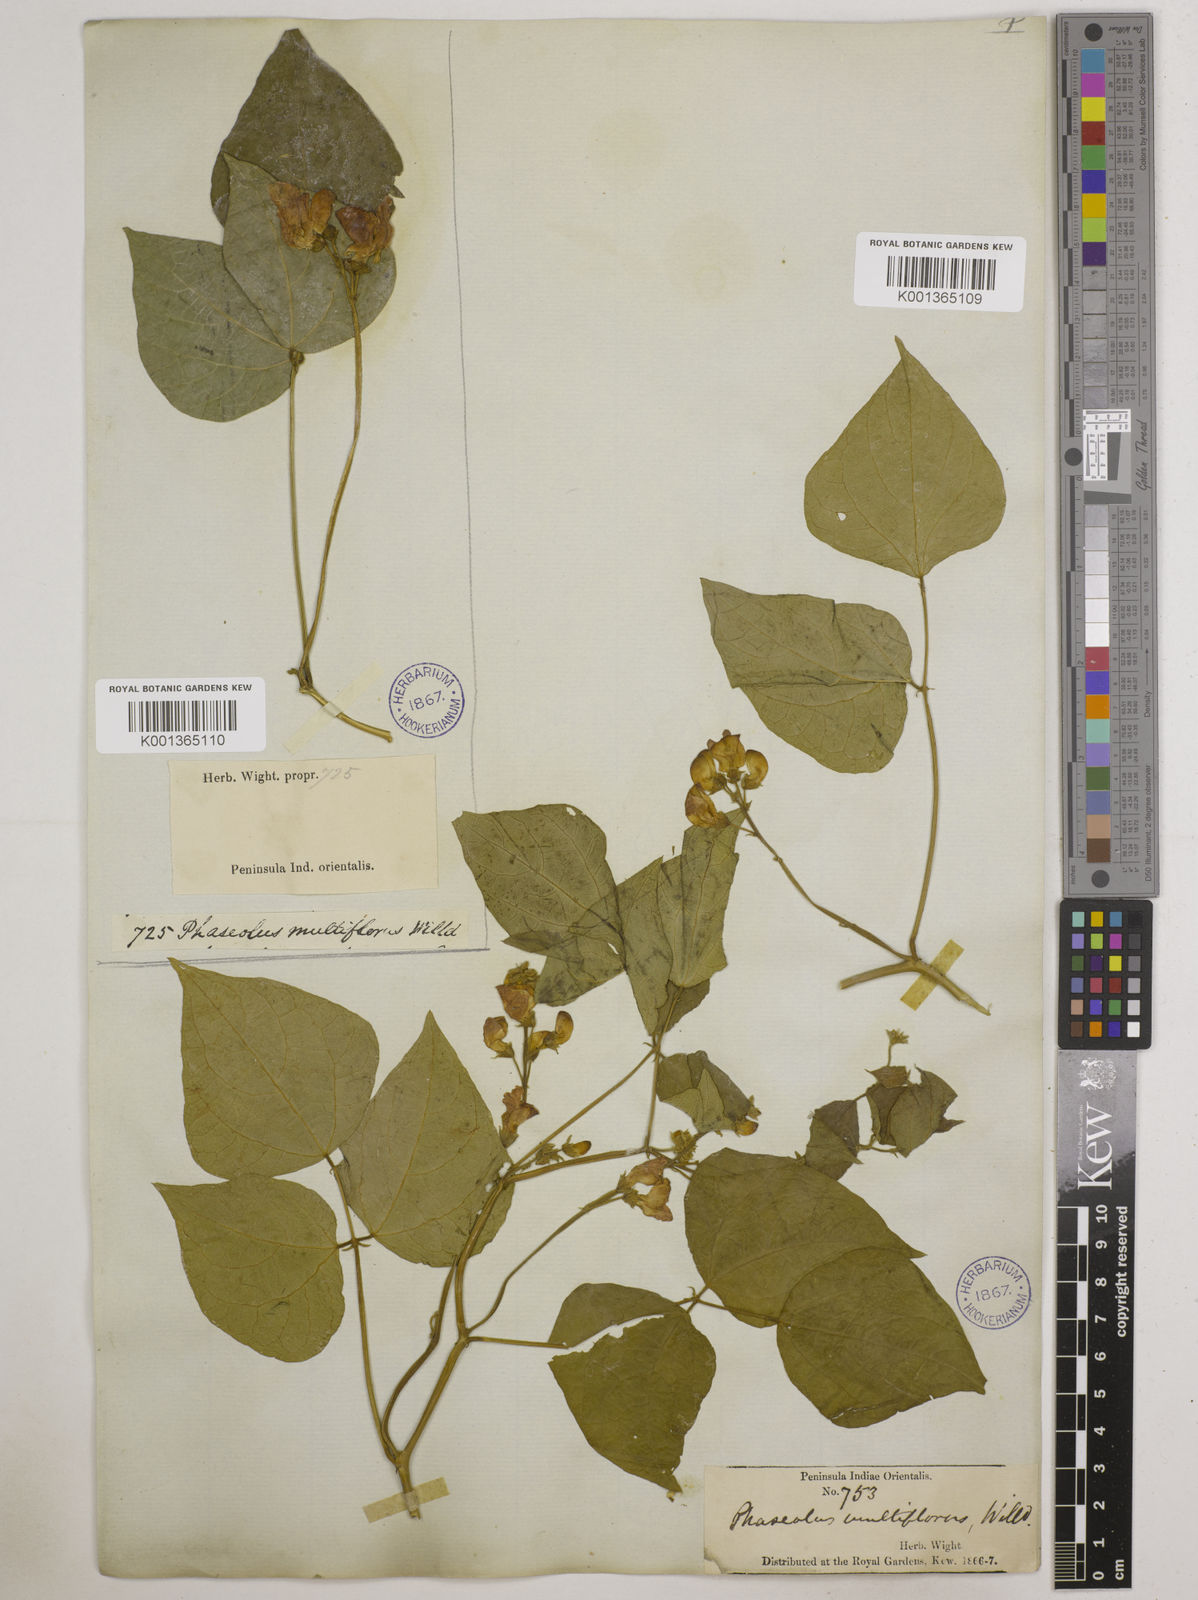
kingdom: Plantae
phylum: Tracheophyta
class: Magnoliopsida
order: Fabales
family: Fabaceae
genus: Phaseolus
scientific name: Phaseolus vulgaris
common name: Bean
